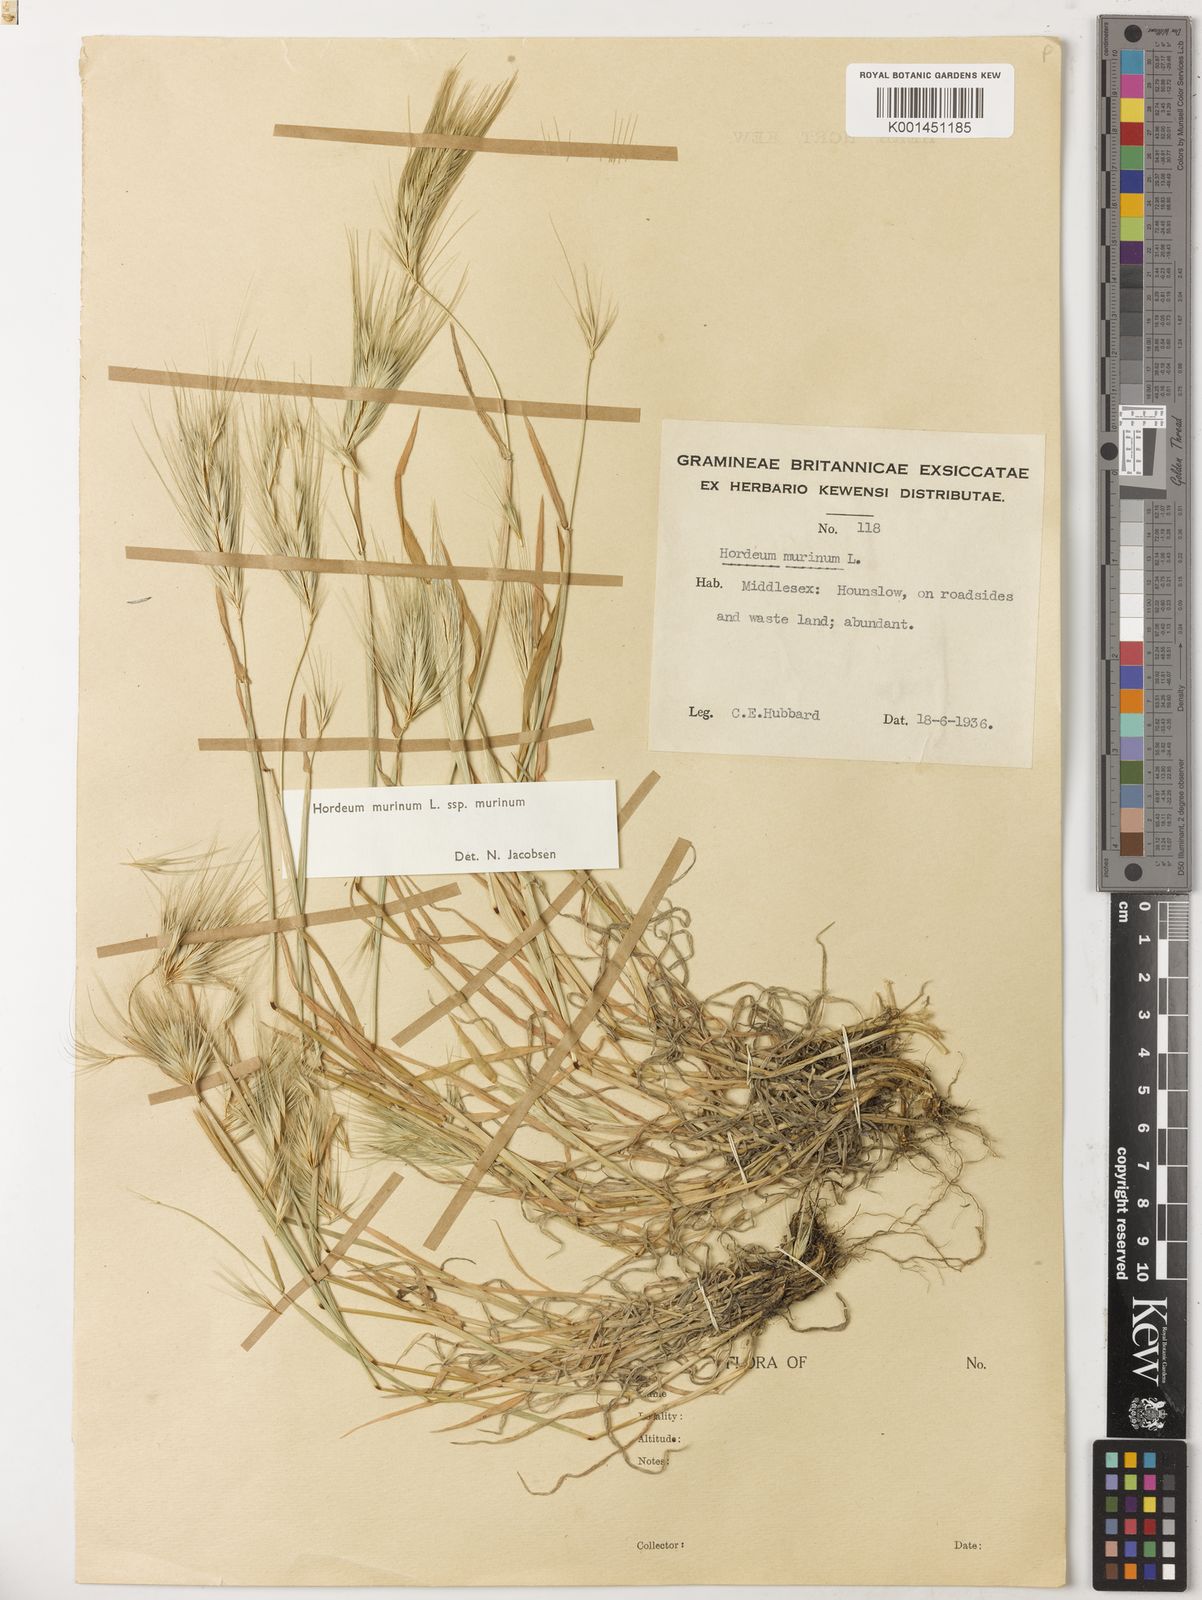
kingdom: Plantae
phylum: Tracheophyta
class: Liliopsida
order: Poales
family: Poaceae
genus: Hordeum
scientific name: Hordeum murinum
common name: Wall barley
